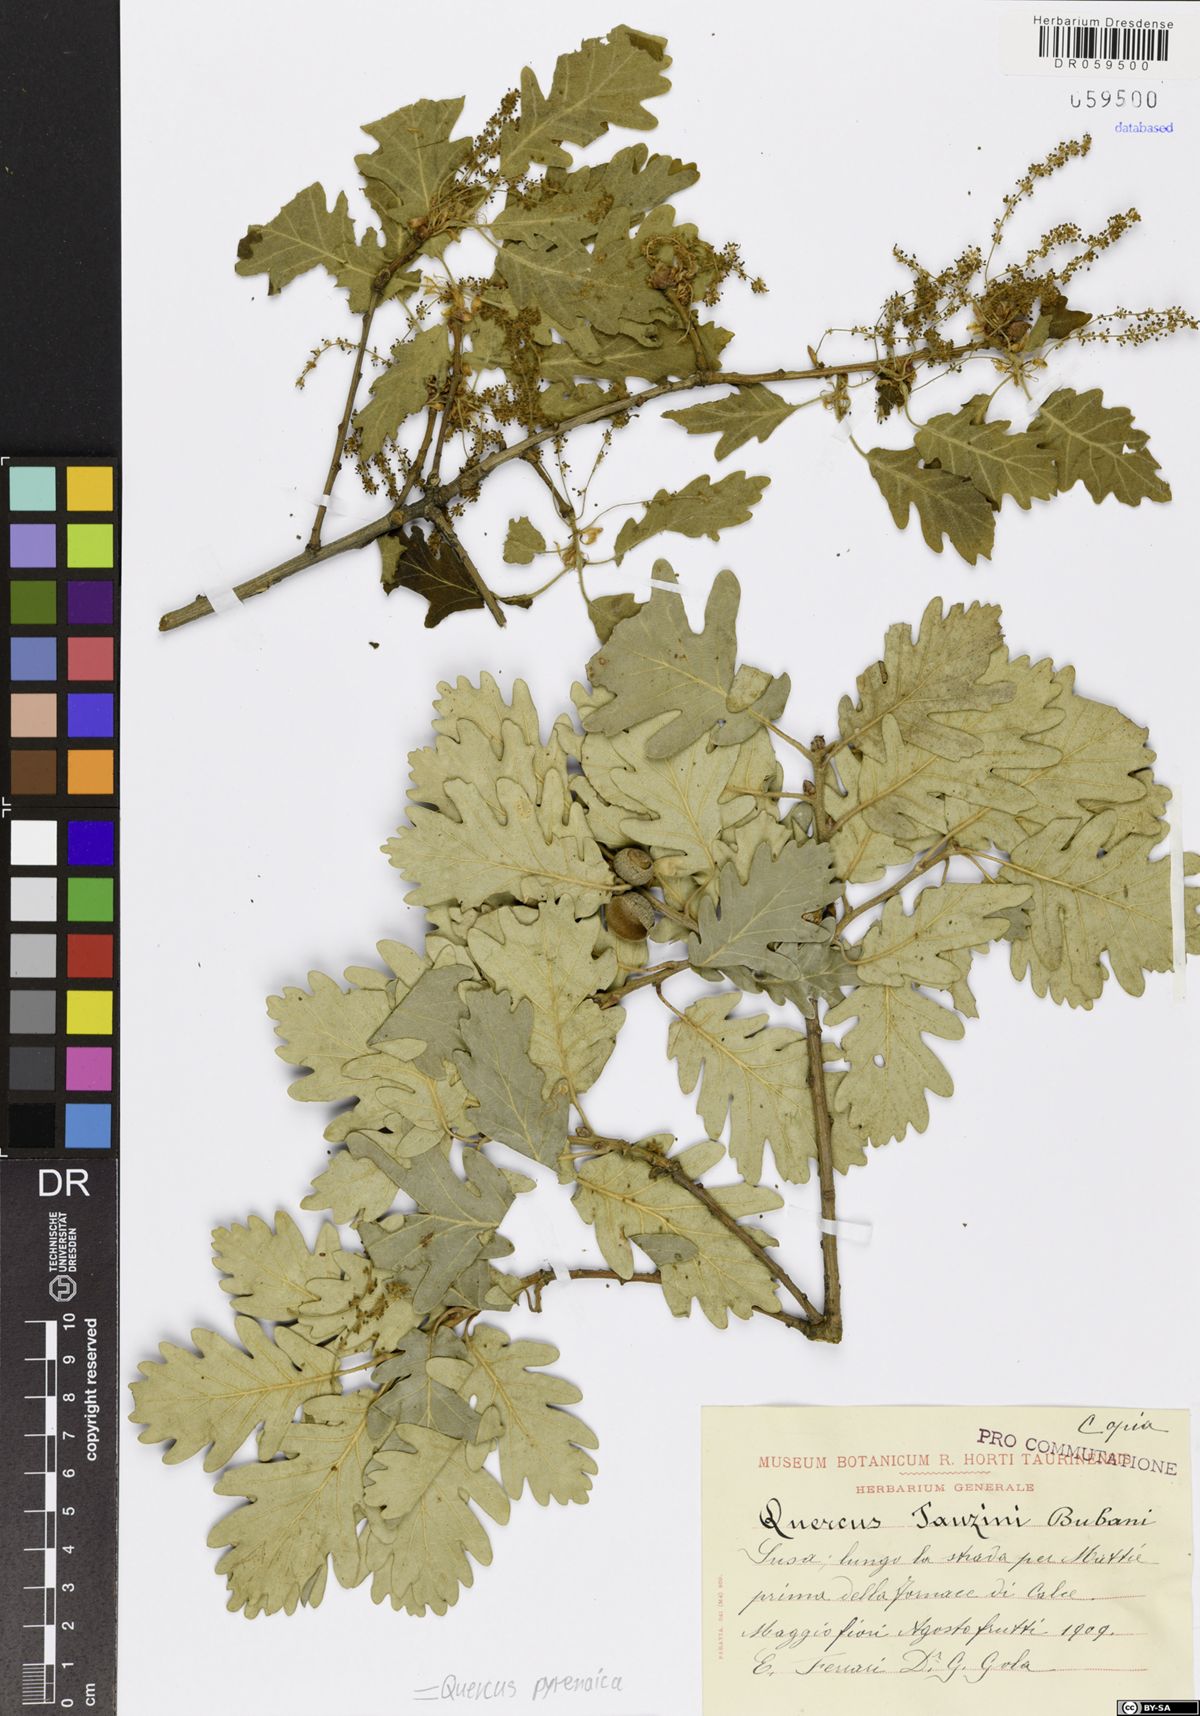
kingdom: Plantae
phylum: Tracheophyta
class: Magnoliopsida
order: Fagales
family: Fagaceae
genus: Quercus
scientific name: Quercus pyrenaica
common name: Pyrenean oak
